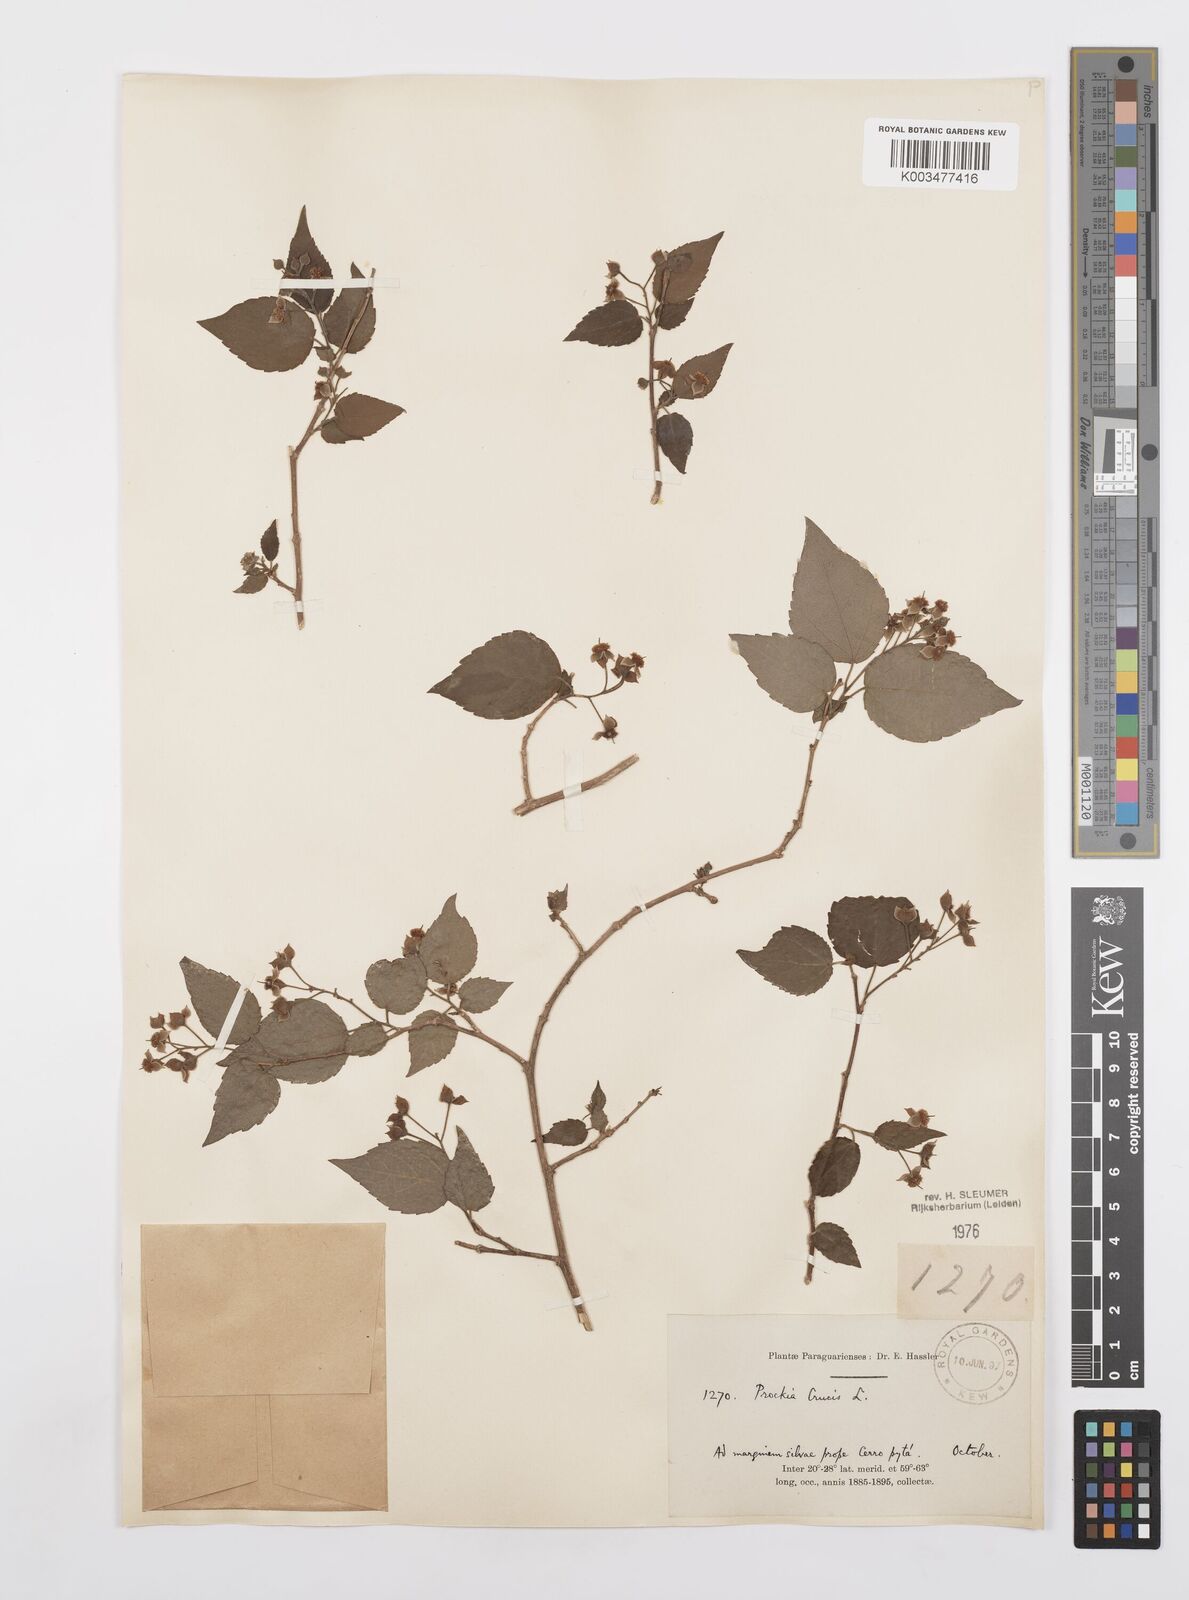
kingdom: Plantae
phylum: Tracheophyta
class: Magnoliopsida
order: Malpighiales
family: Salicaceae
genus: Prockia
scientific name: Prockia crucis
